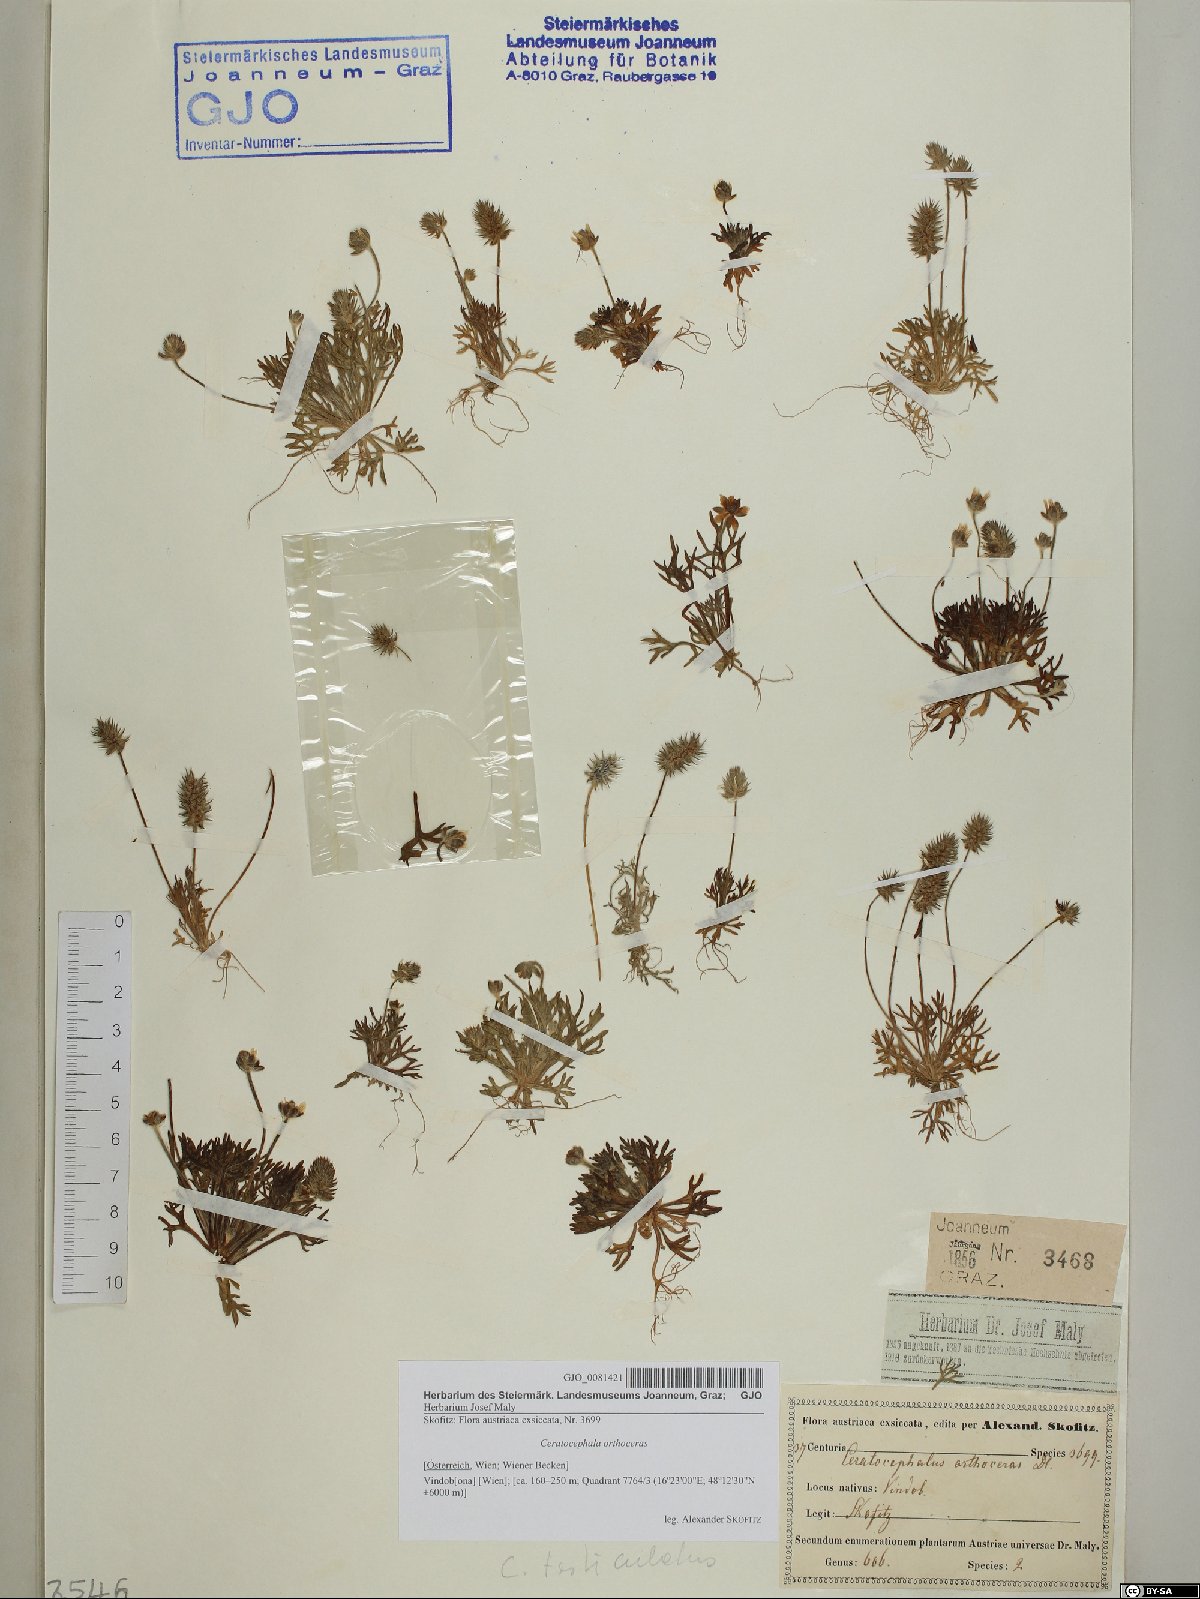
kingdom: Plantae
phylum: Tracheophyta
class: Magnoliopsida
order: Ranunculales
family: Ranunculaceae
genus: Ceratocephala
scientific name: Ceratocephala orthoceras
